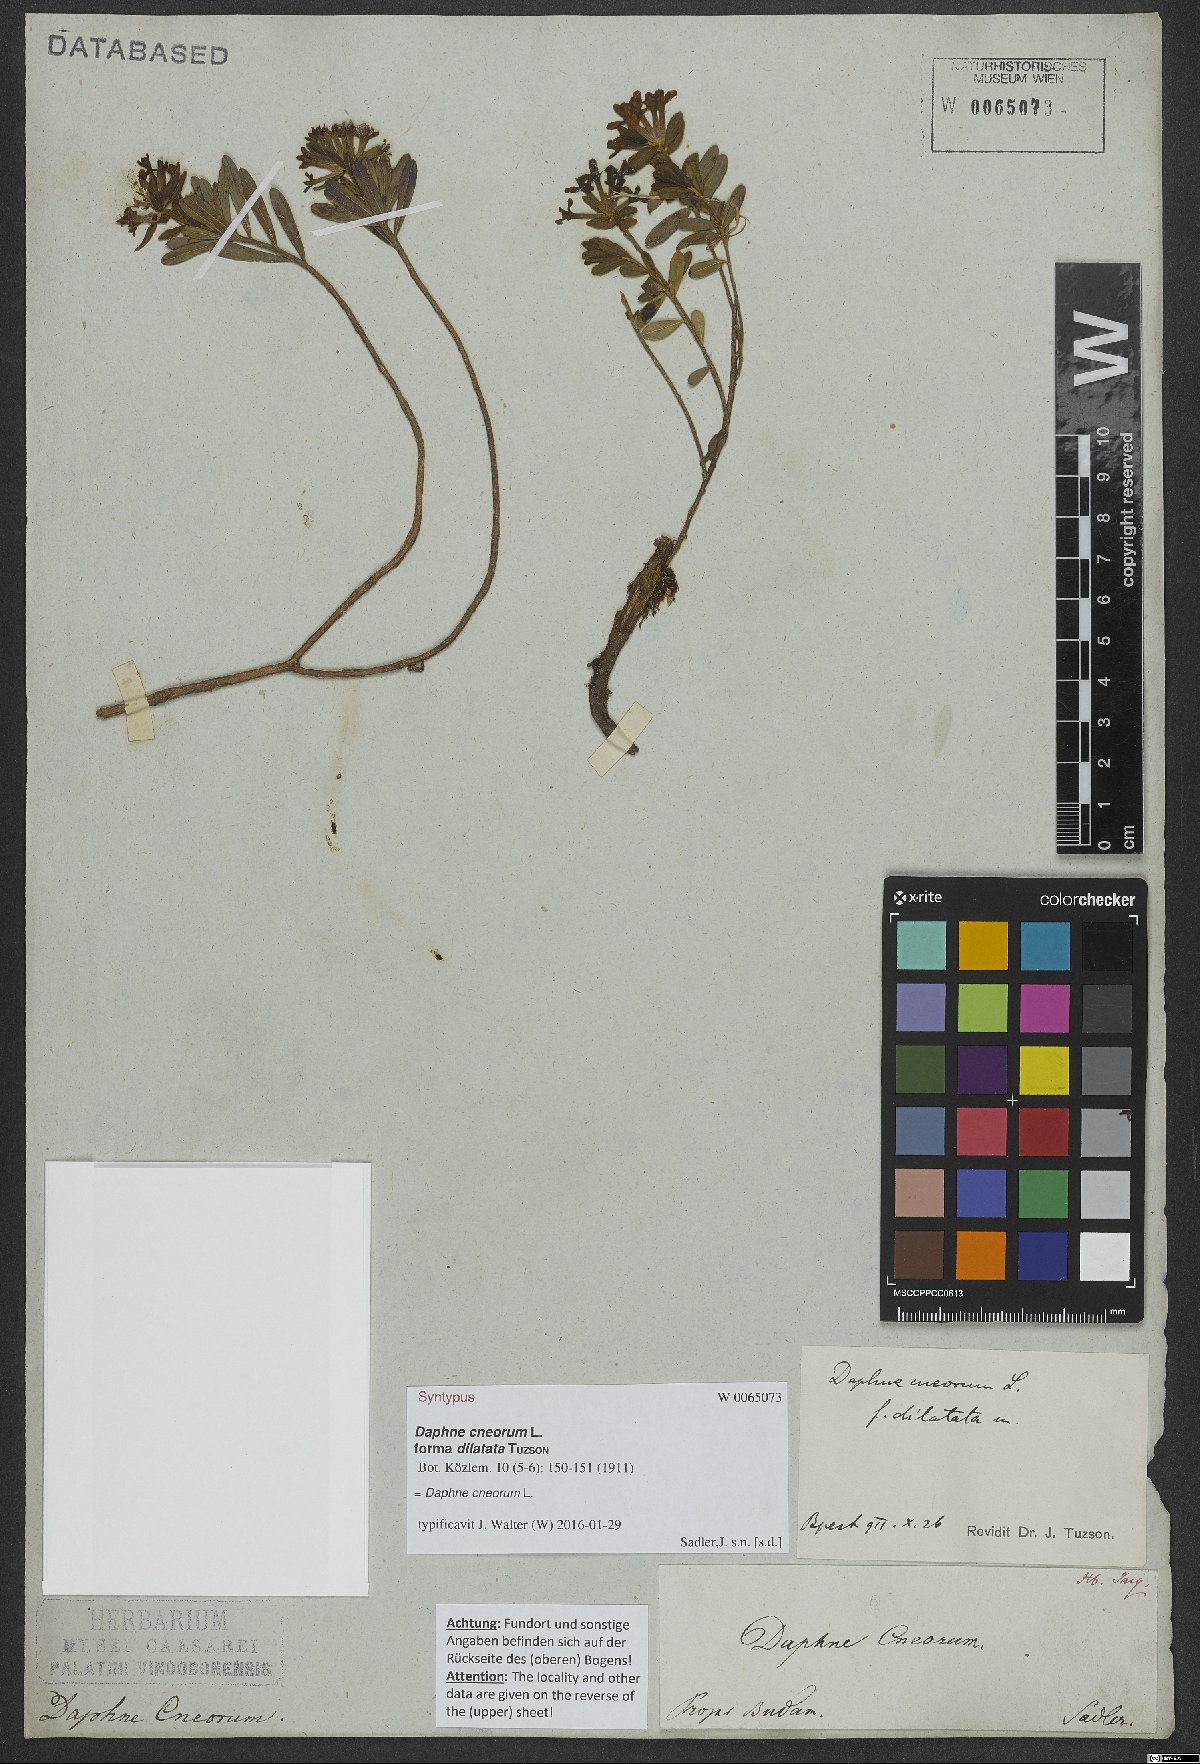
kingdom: Plantae
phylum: Tracheophyta
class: Magnoliopsida
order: Malvales
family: Thymelaeaceae
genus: Daphne
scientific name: Daphne cneorum
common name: Garland-flower
